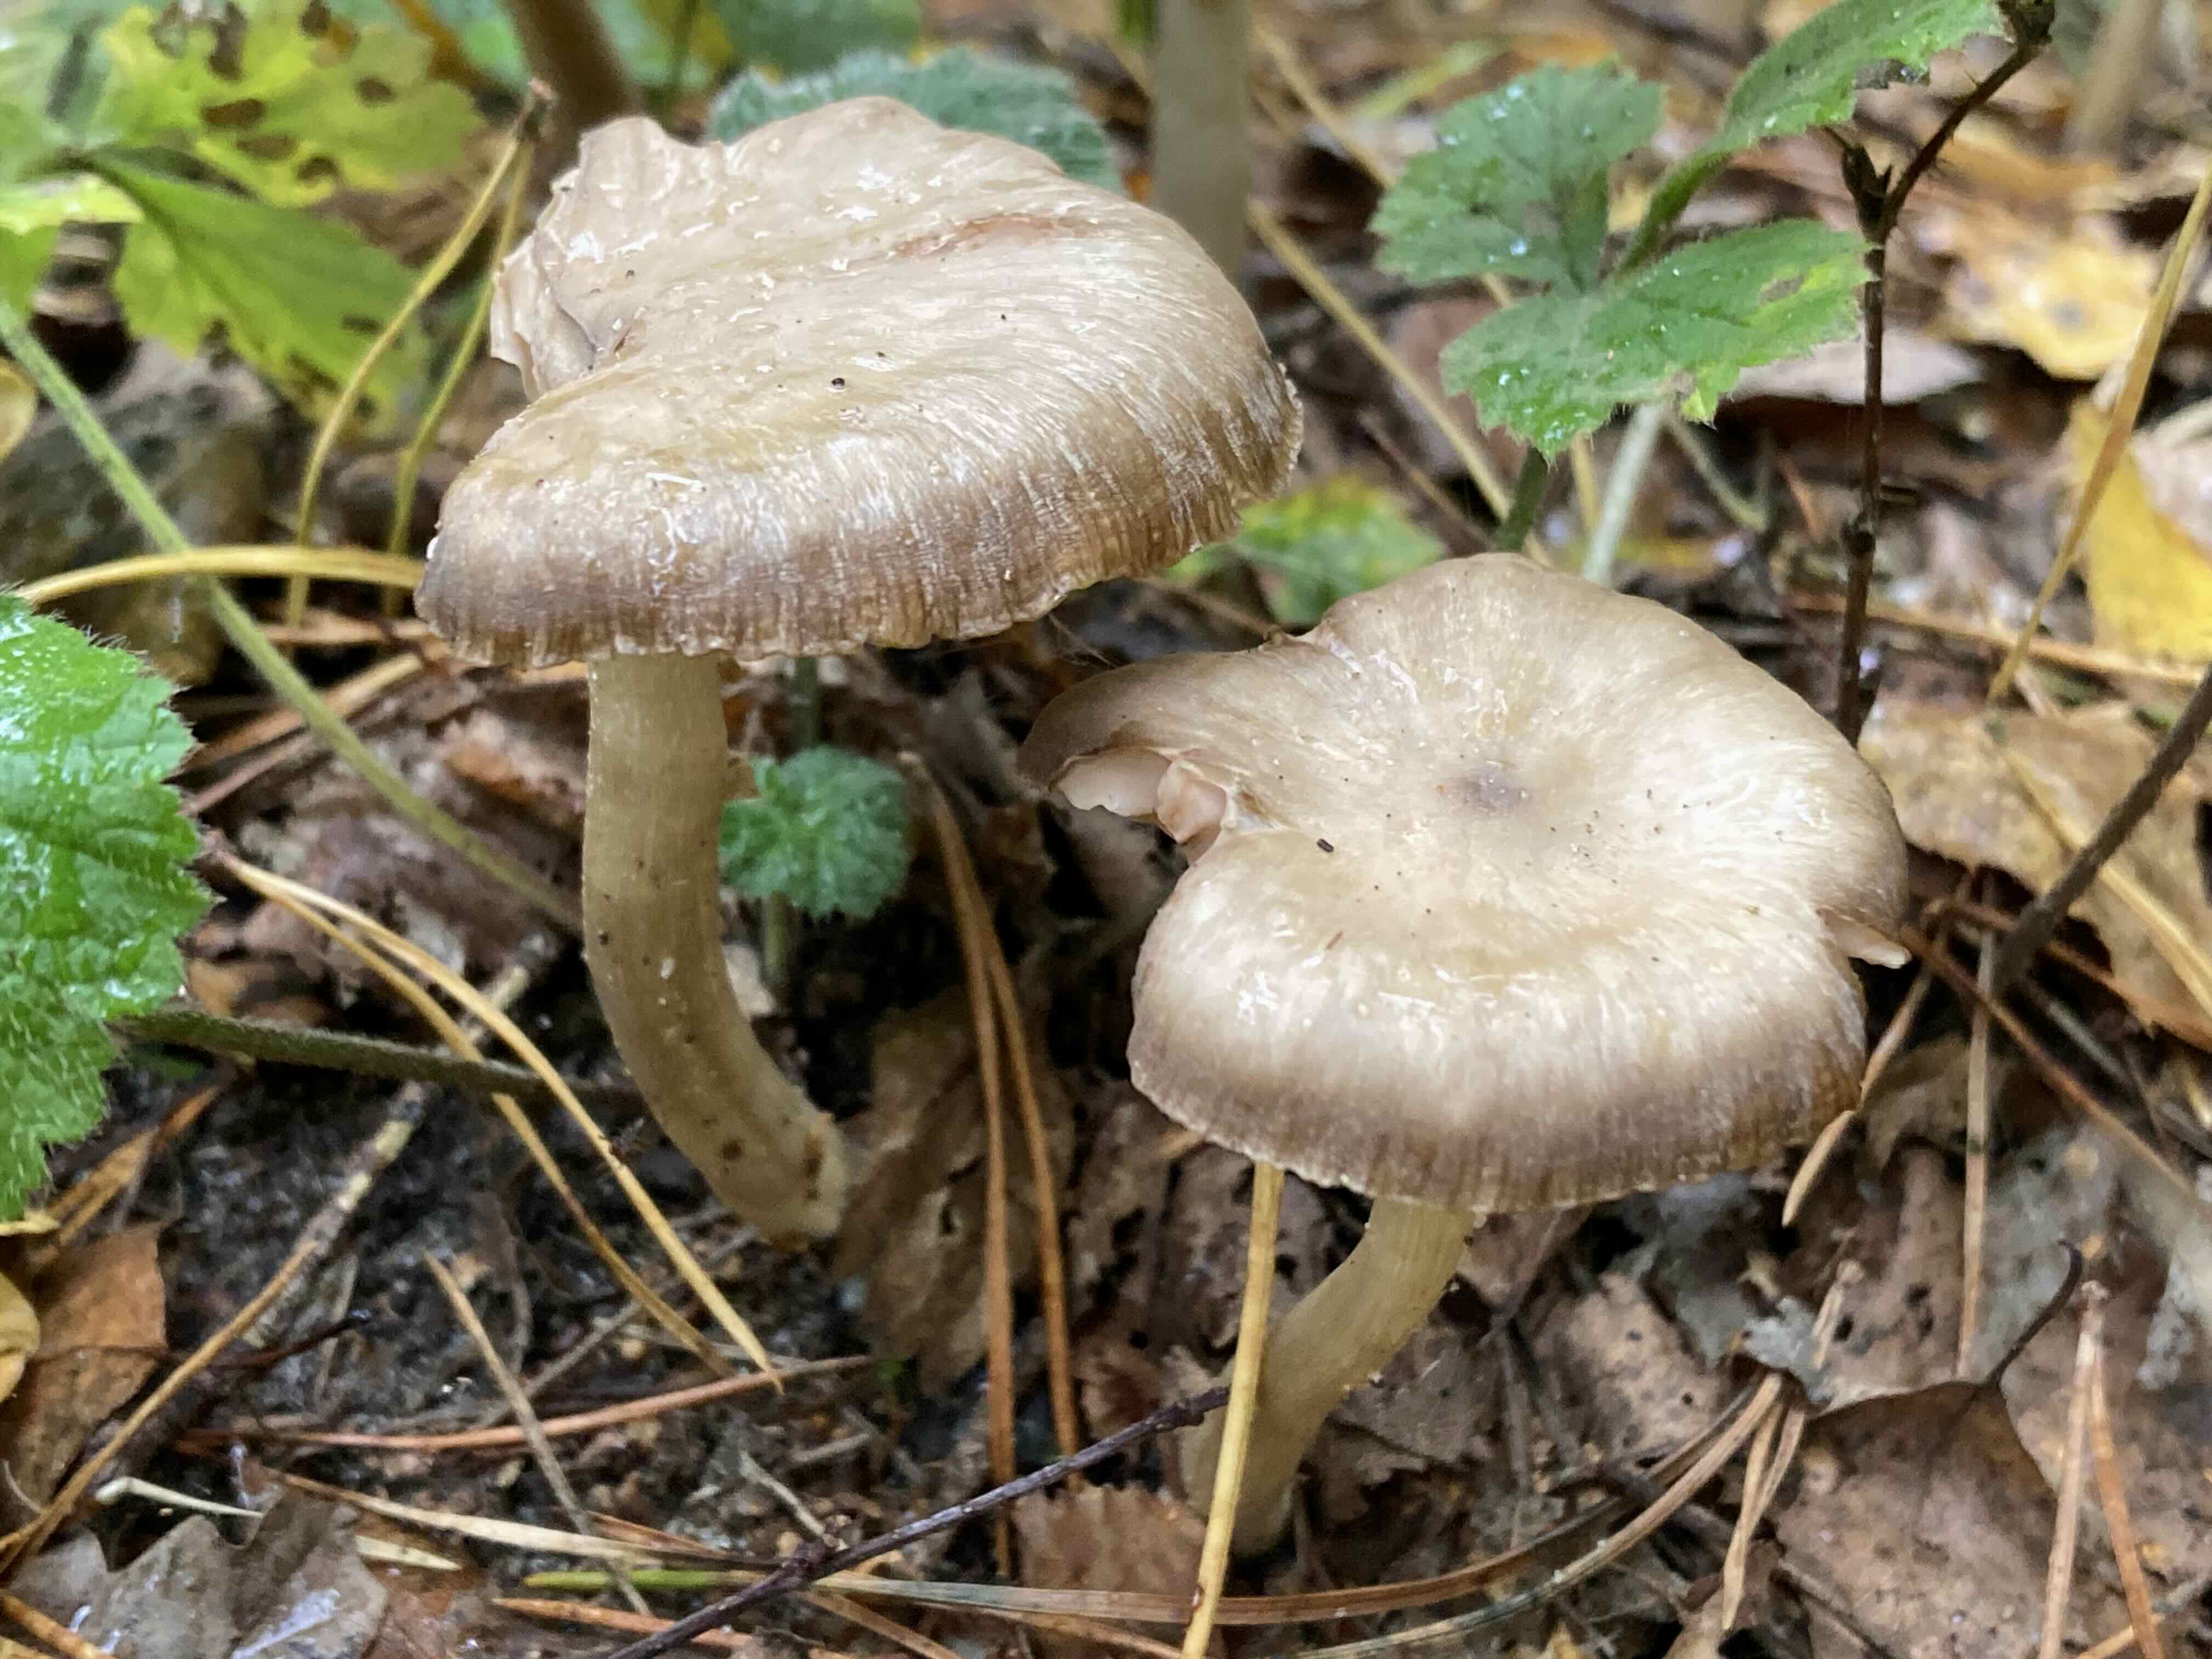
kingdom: Fungi
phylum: Basidiomycota
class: Agaricomycetes
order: Agaricales
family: Entolomataceae
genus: Entoloma
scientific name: Entoloma
